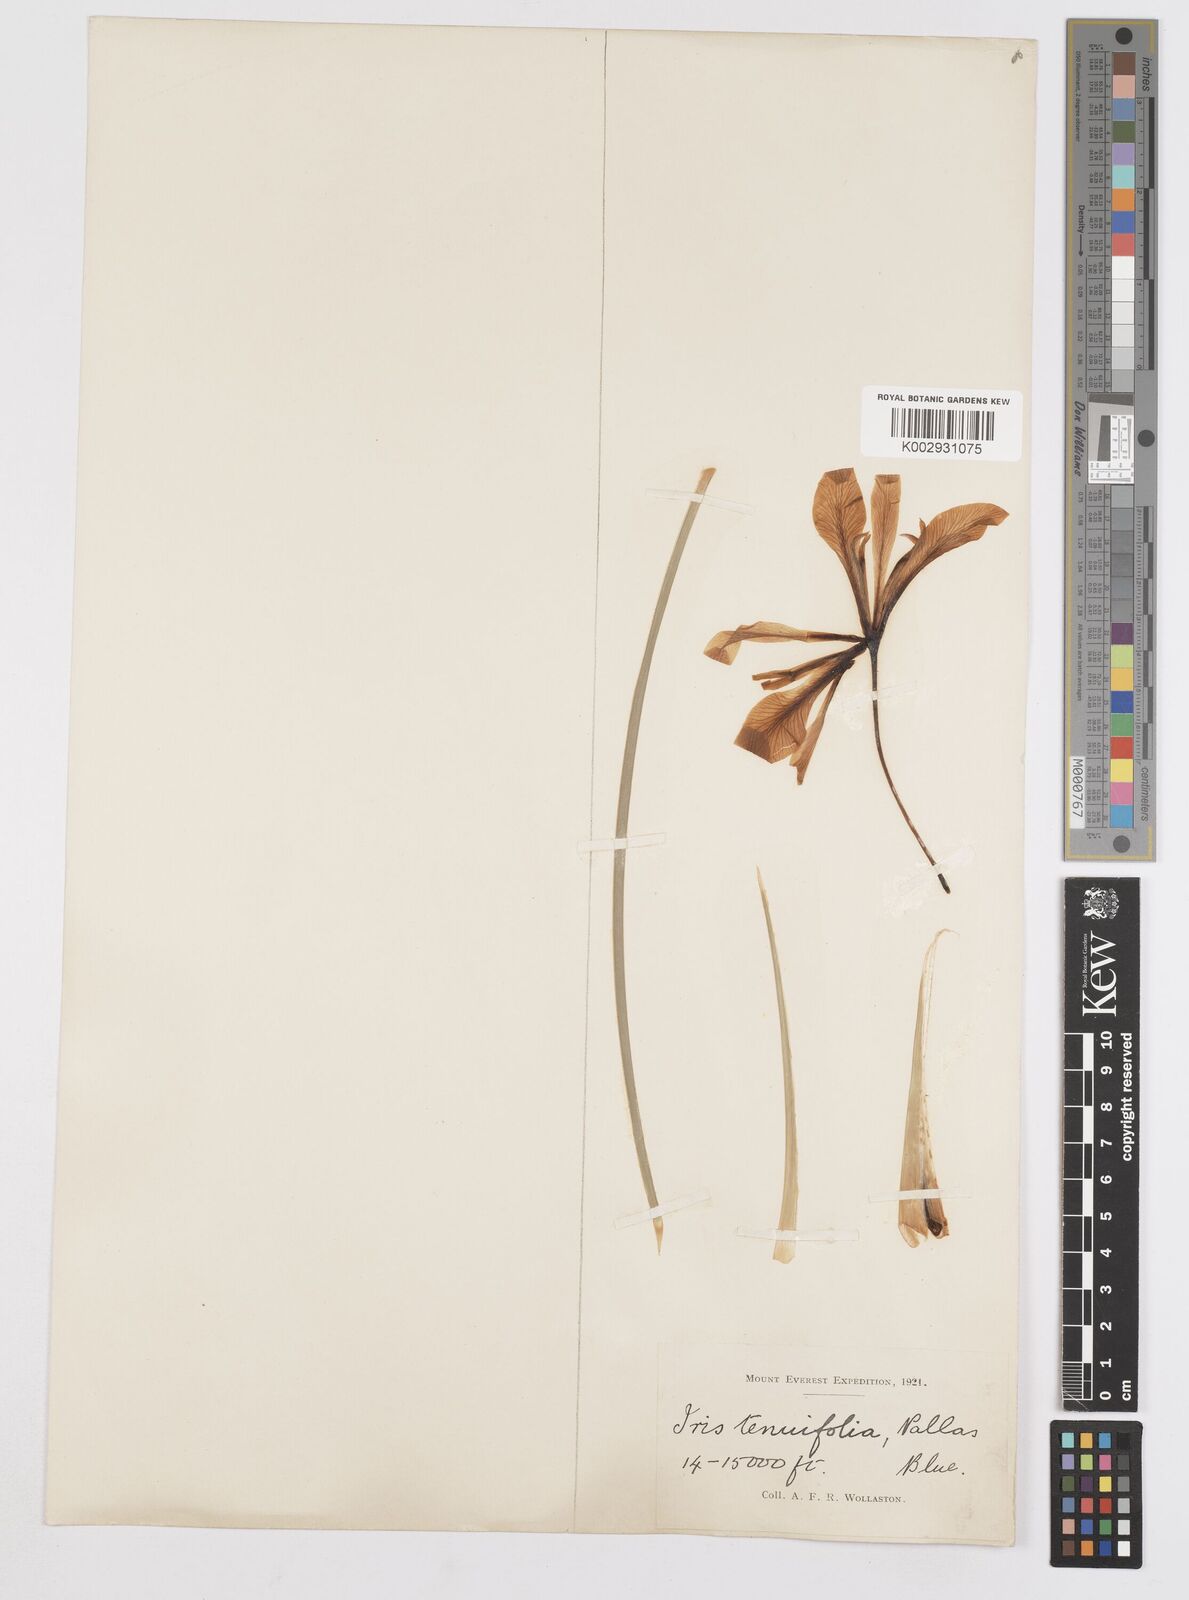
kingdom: Plantae
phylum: Tracheophyta
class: Liliopsida
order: Asparagales
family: Iridaceae
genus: Iris
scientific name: Iris tenuifolia
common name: Slender-leaf iris
